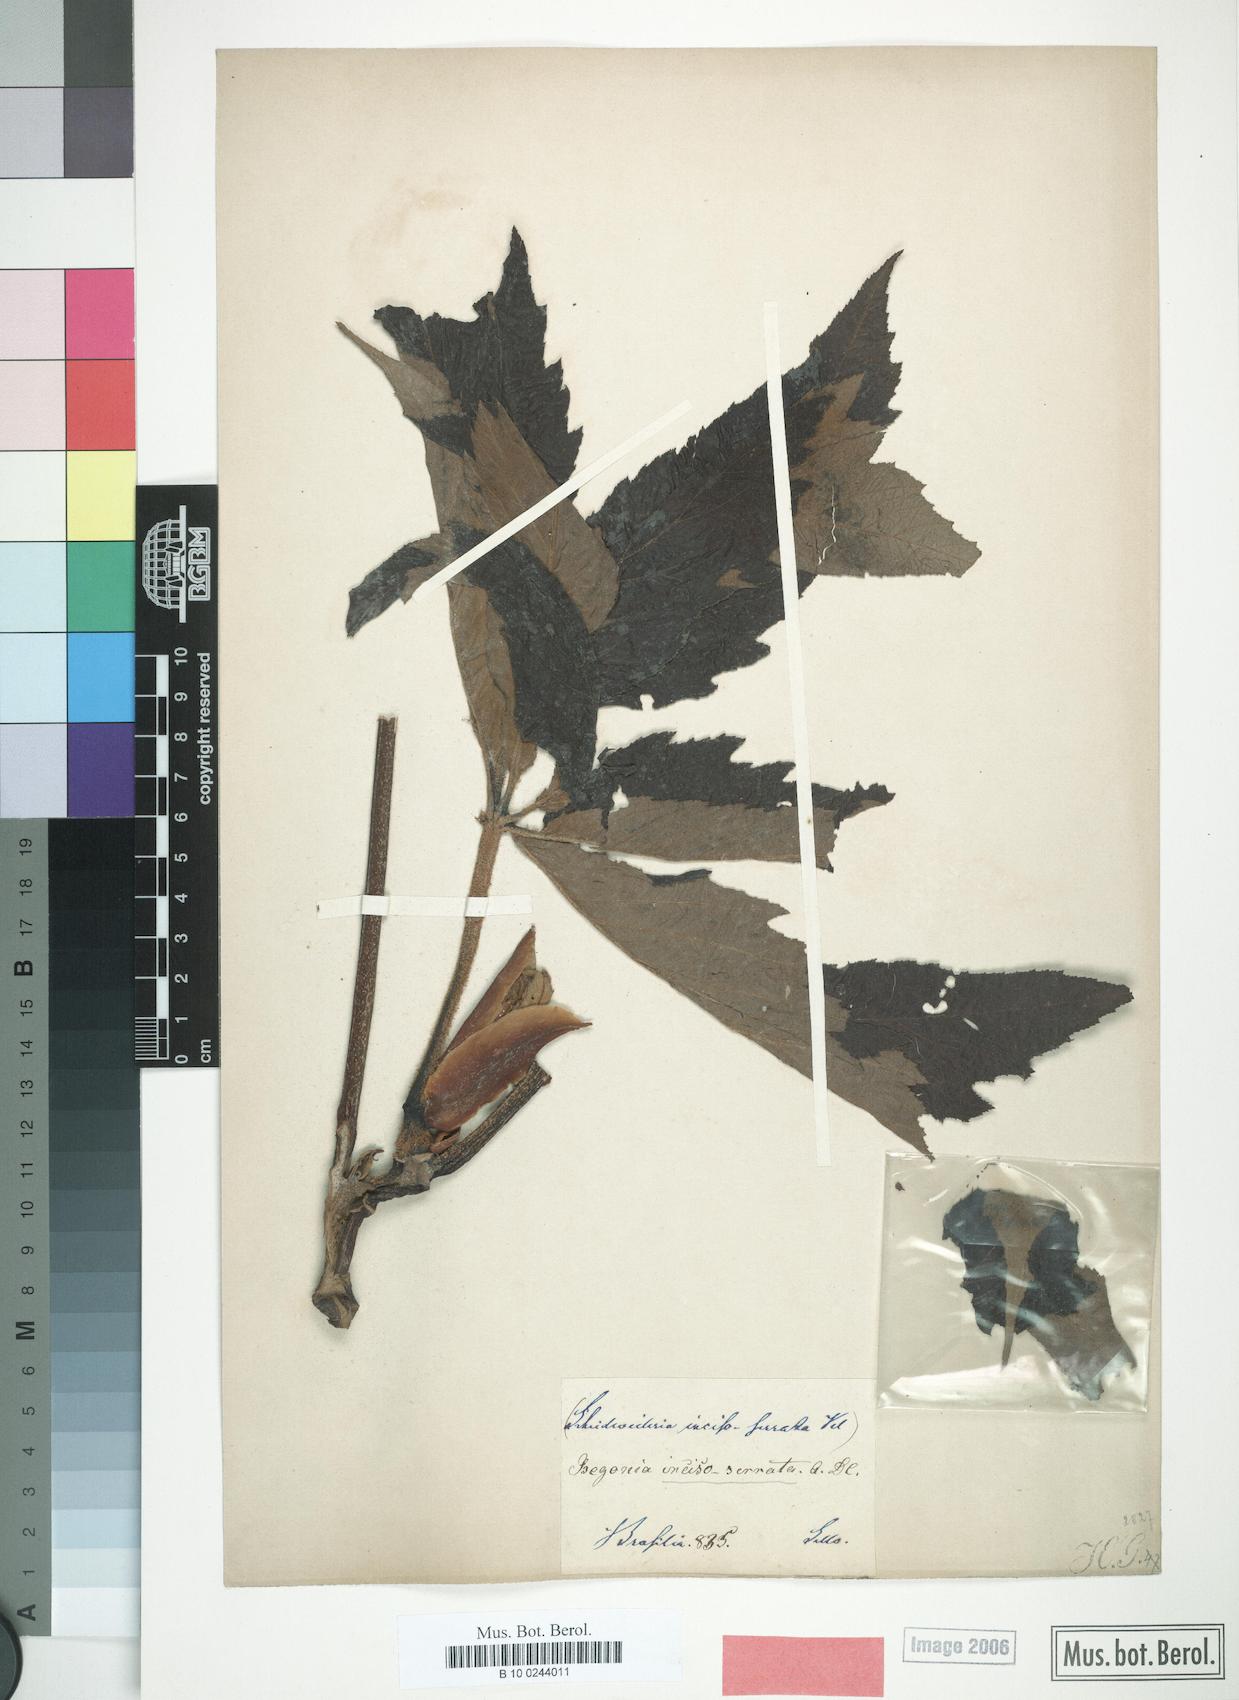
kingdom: Plantae
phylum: Tracheophyta
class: Magnoliopsida
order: Cucurbitales
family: Begoniaceae
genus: Begonia
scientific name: Begonia incisoserrata
